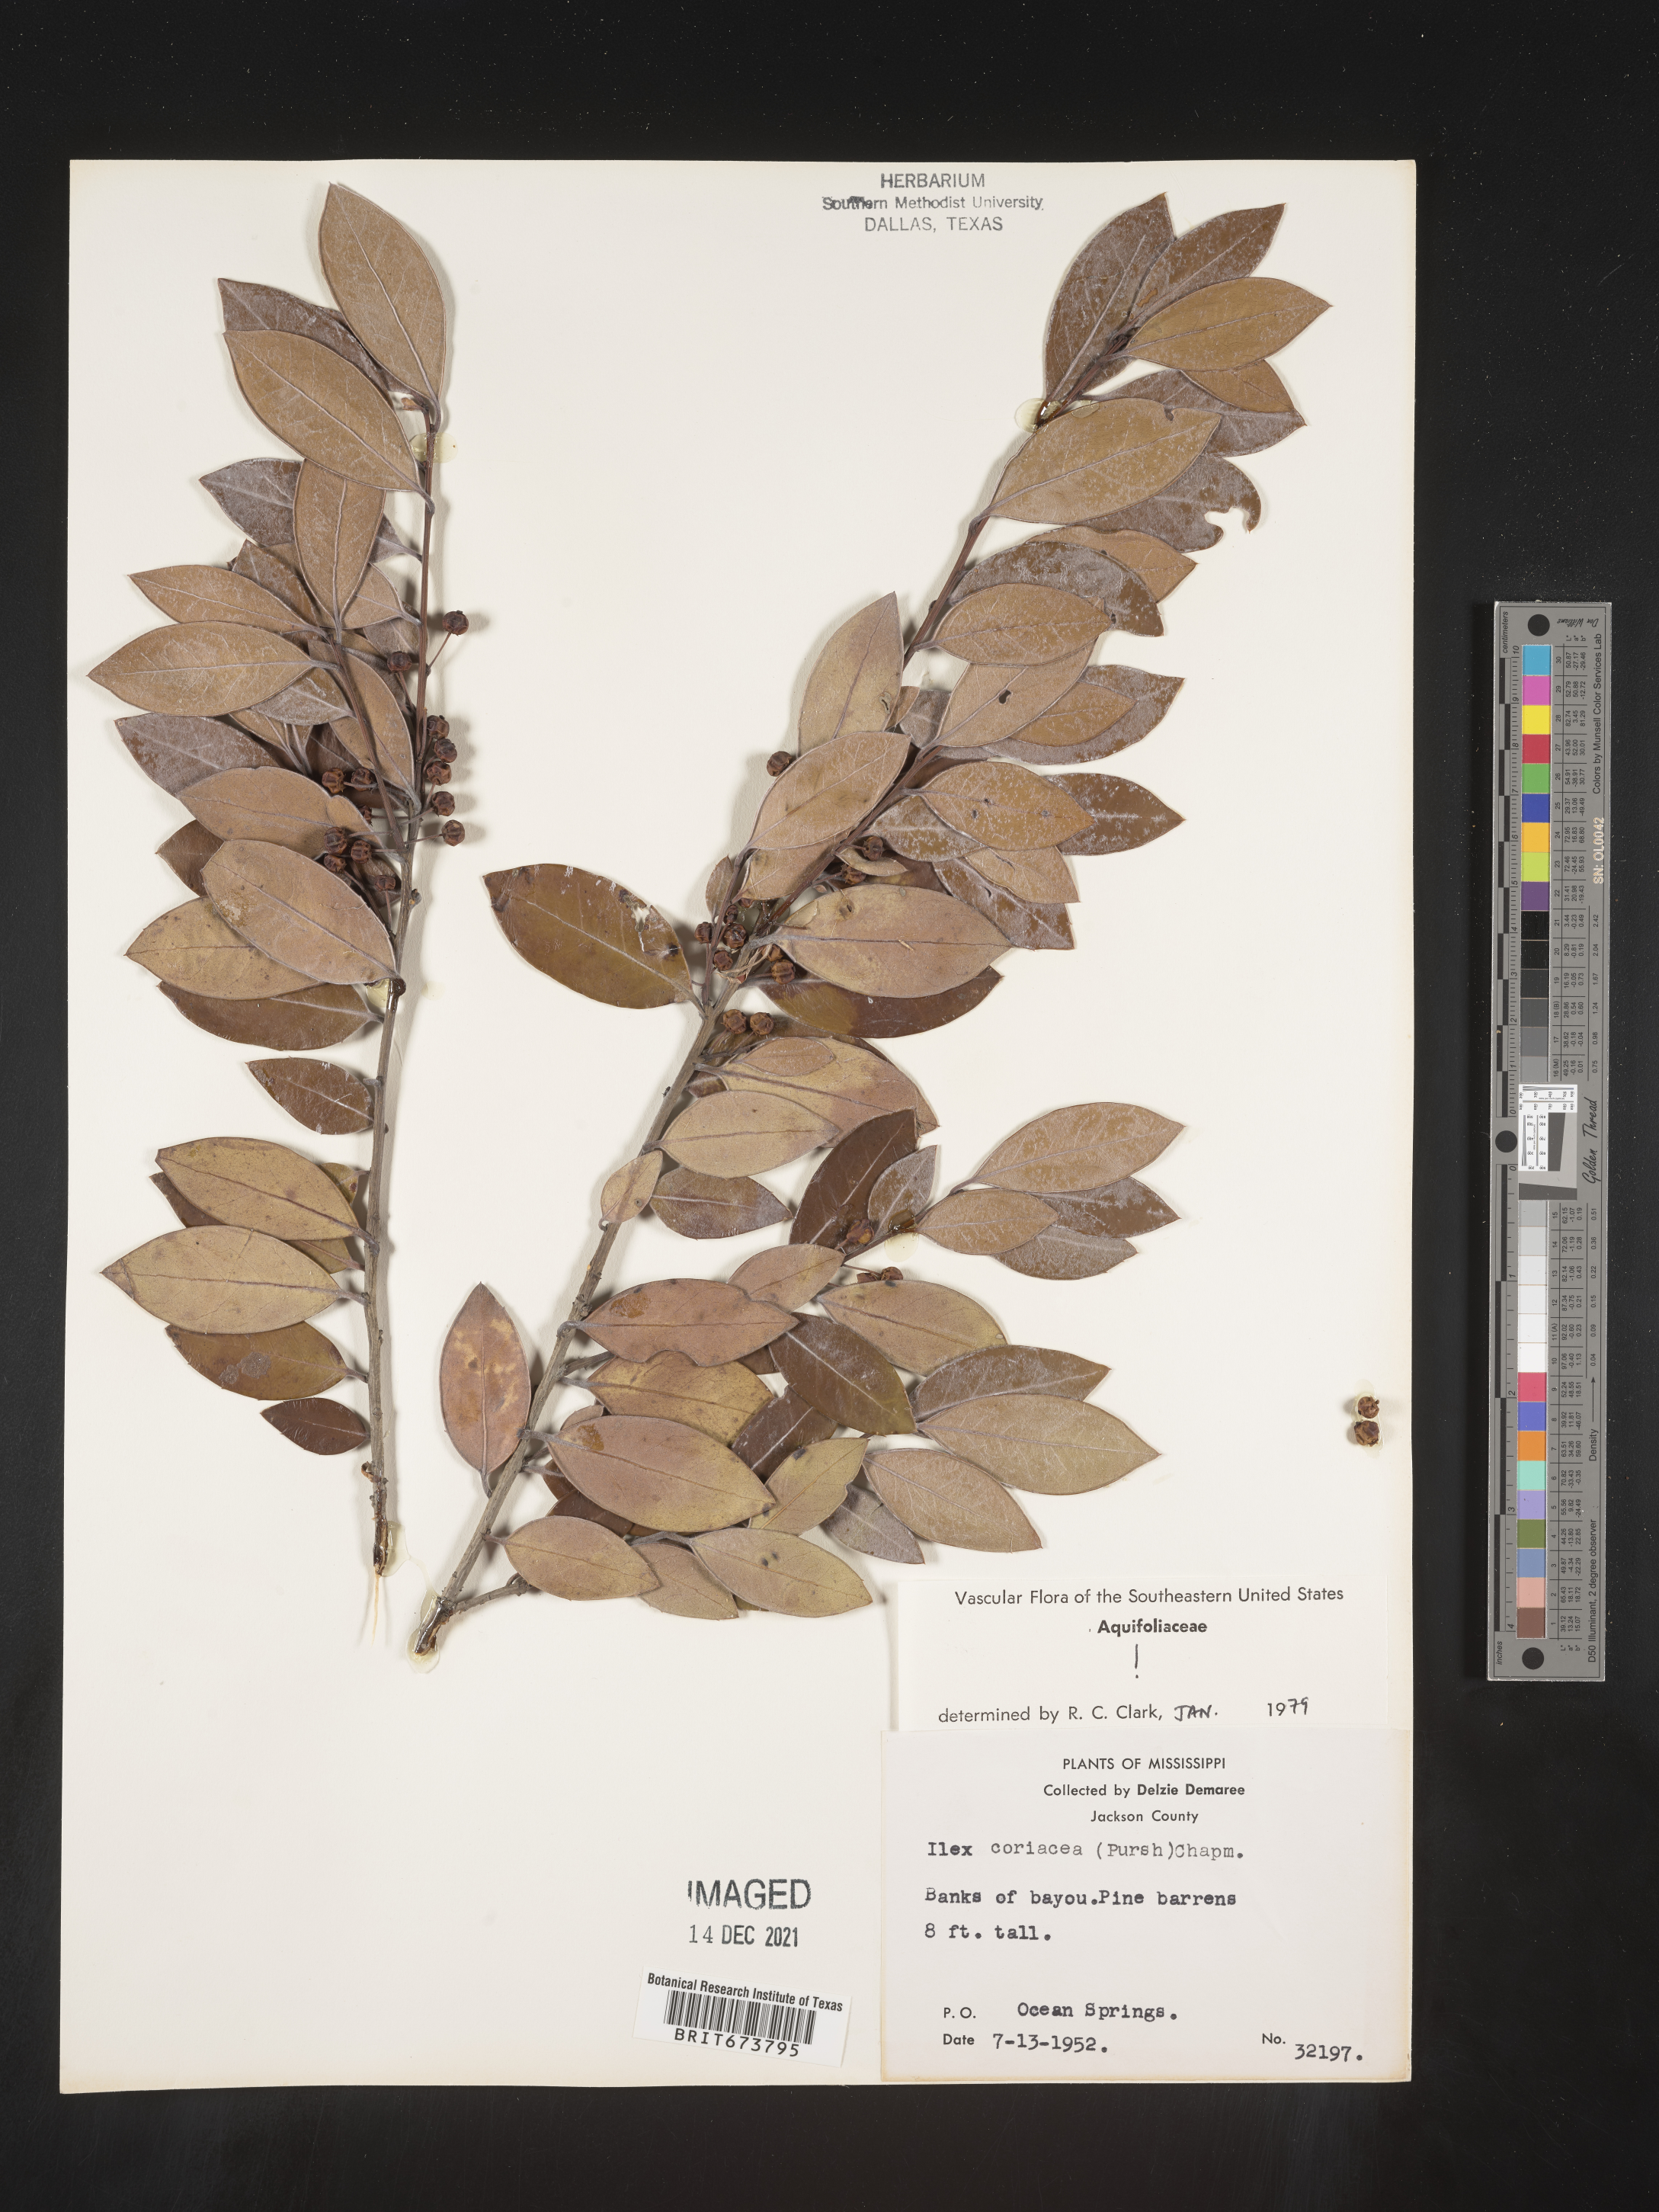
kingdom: Plantae
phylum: Tracheophyta
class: Magnoliopsida
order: Aquifoliales
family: Aquifoliaceae
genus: Ilex
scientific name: Ilex coriacea
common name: Sweet gallberry
